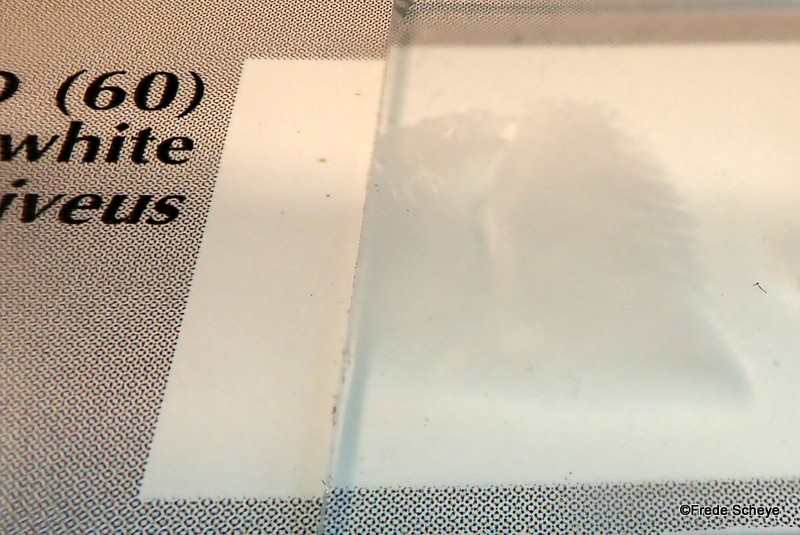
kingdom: Fungi
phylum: Basidiomycota
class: Agaricomycetes
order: Agaricales
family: Pleurotaceae
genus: Pleurotus
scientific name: Pleurotus ostreatus
